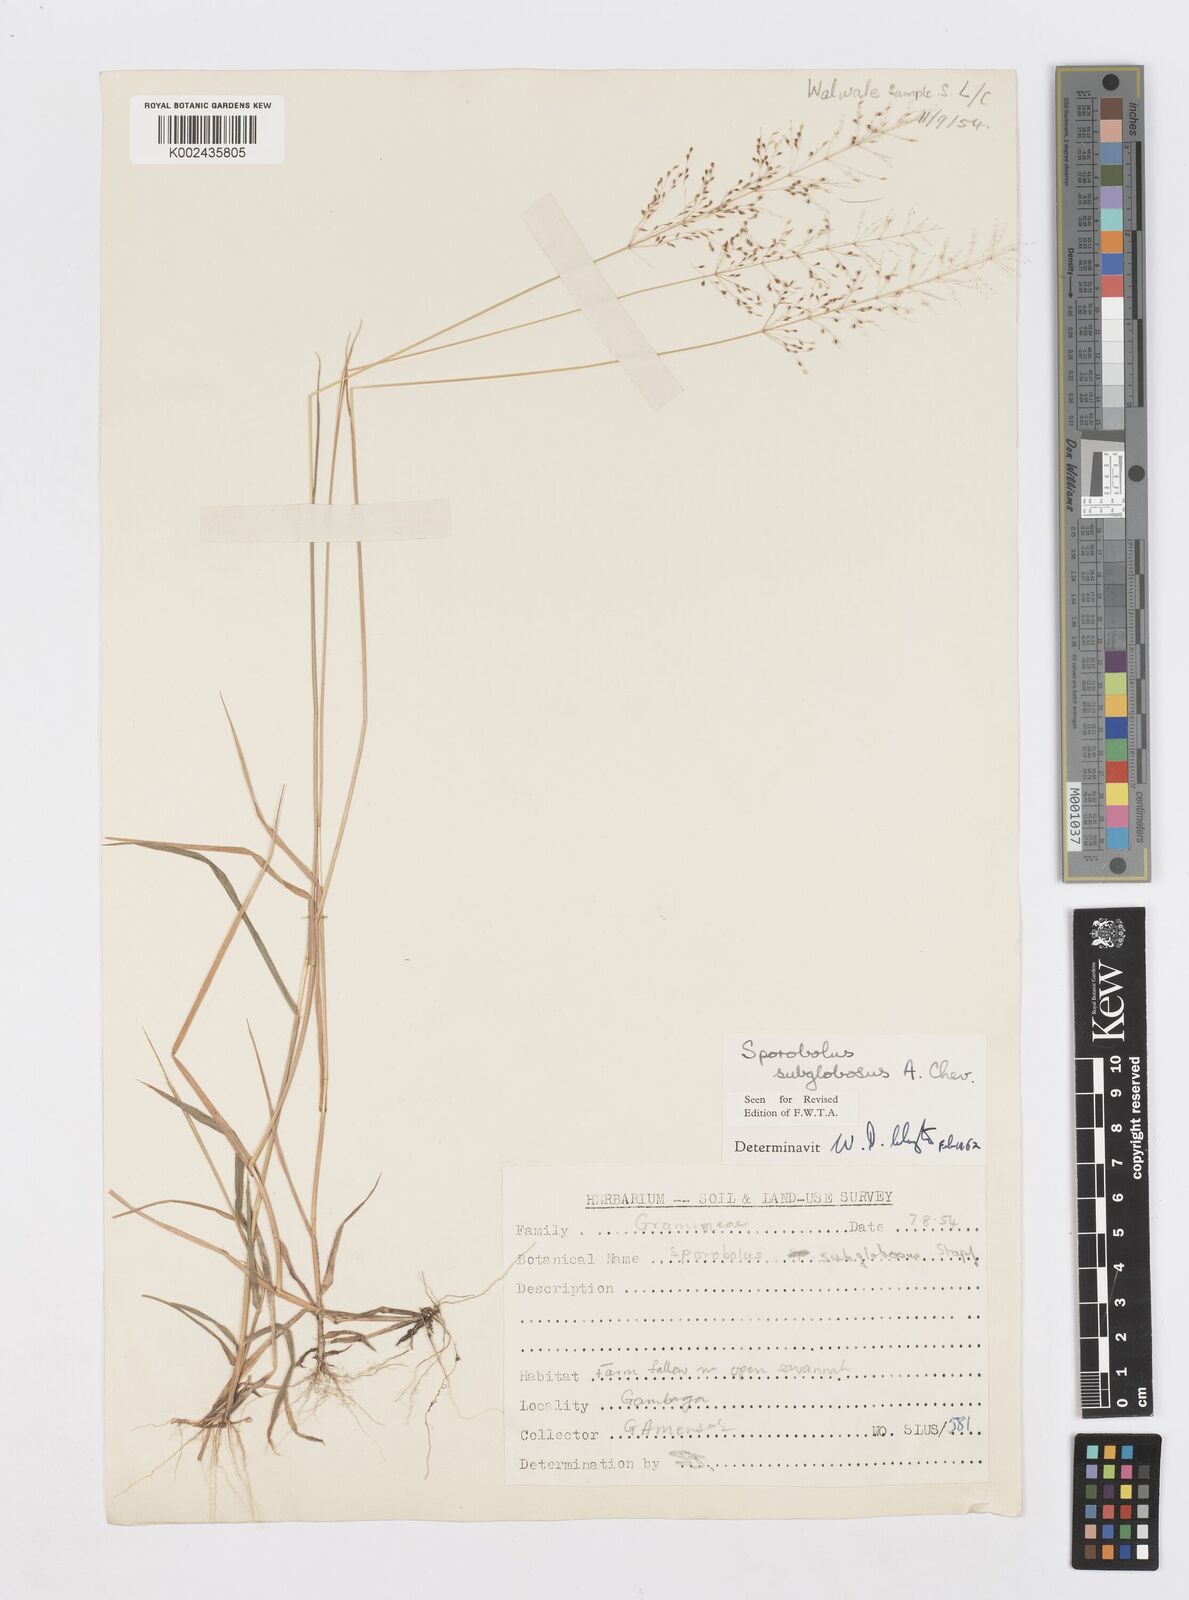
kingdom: Plantae
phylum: Tracheophyta
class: Liliopsida
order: Poales
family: Poaceae
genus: Sporobolus
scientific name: Sporobolus subglobosus
